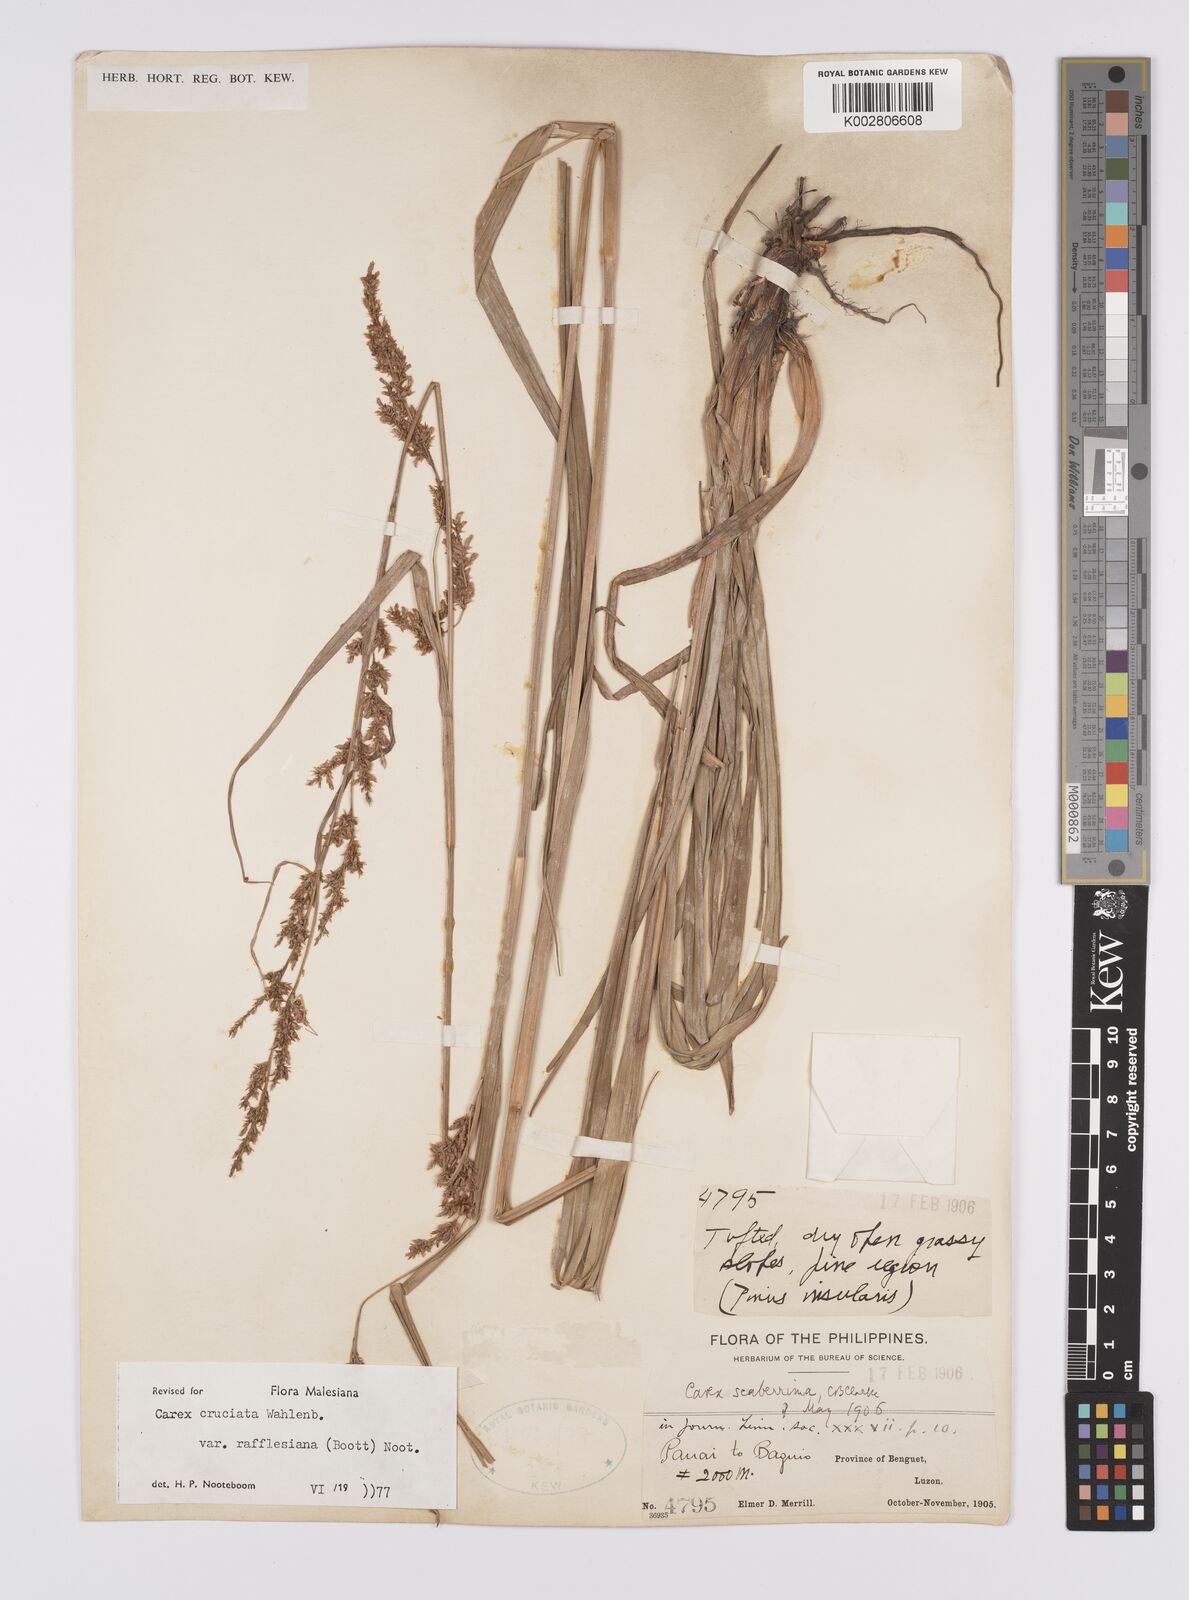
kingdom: Plantae
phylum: Tracheophyta
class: Liliopsida
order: Poales
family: Cyperaceae
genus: Carex
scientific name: Carex rafflesiana
